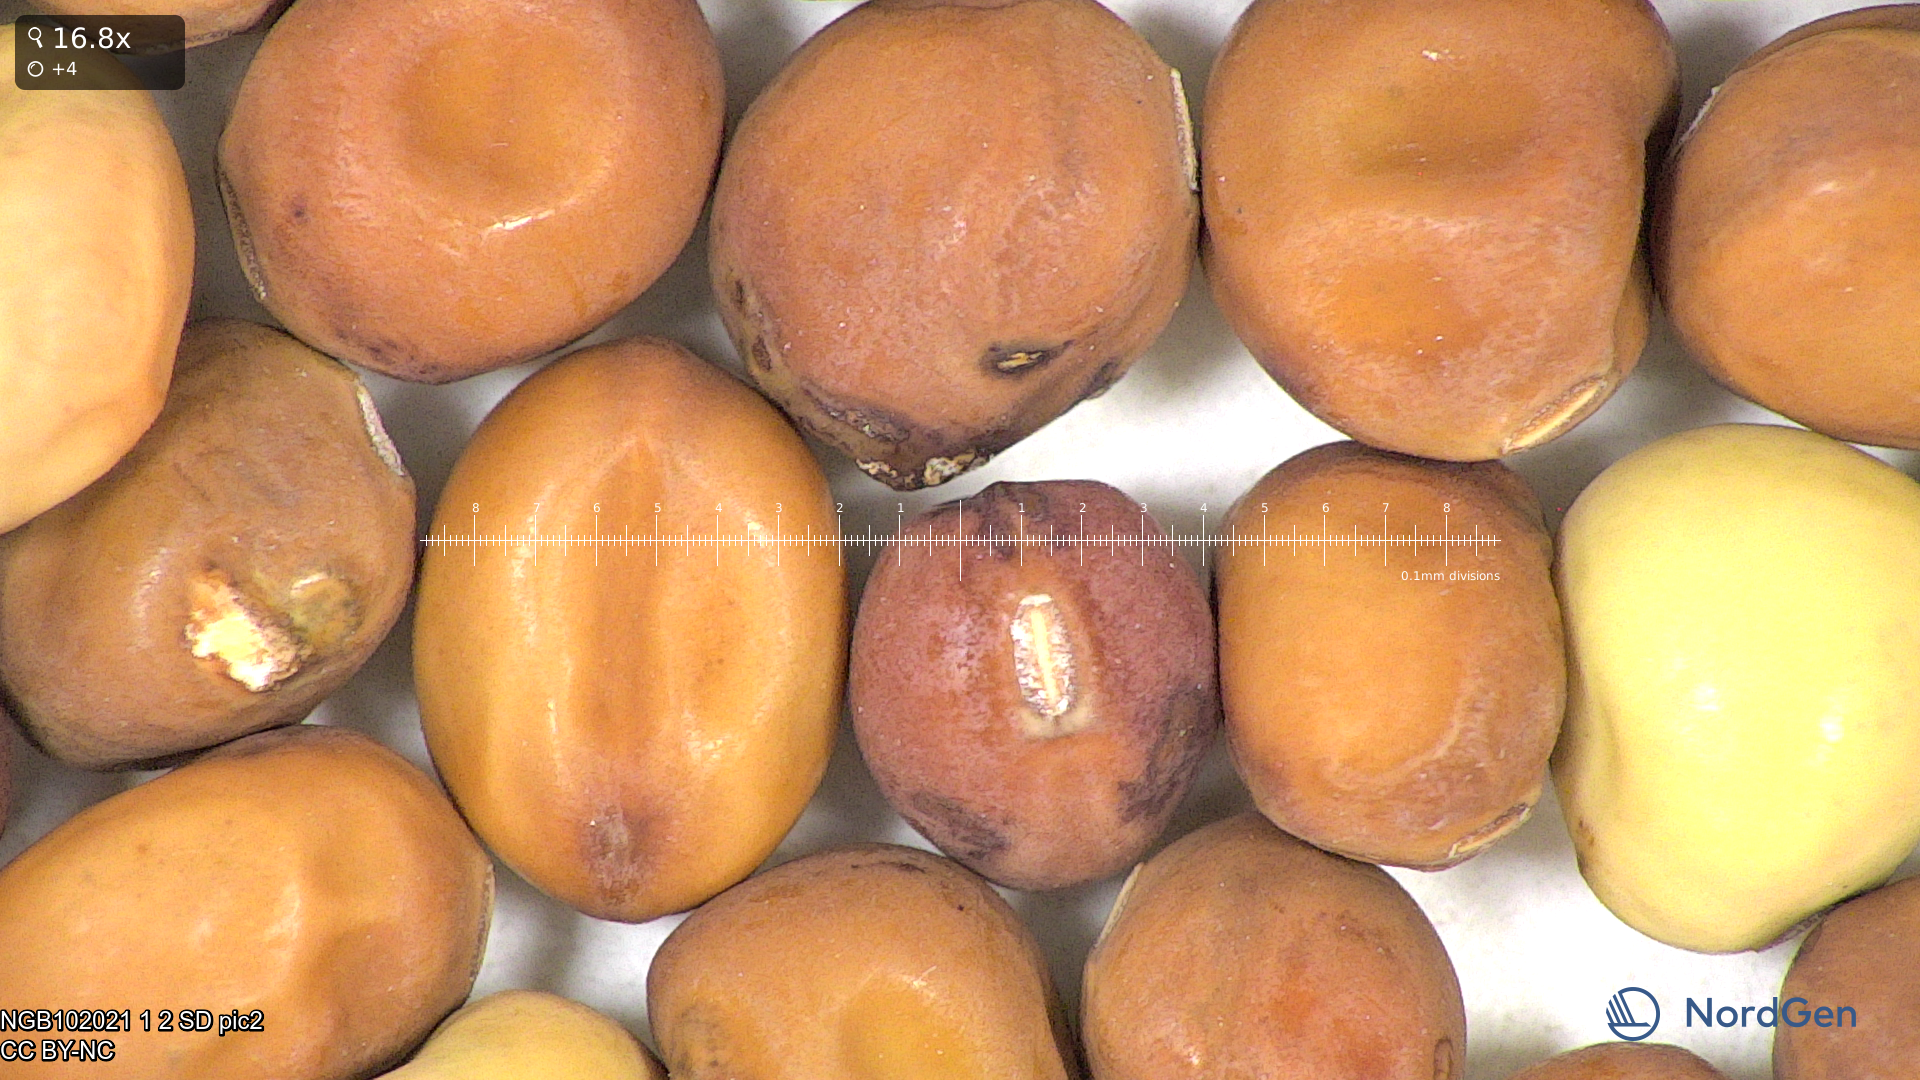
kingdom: Plantae
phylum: Tracheophyta
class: Magnoliopsida
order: Fabales
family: Fabaceae
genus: Lathyrus
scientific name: Lathyrus oleraceus
